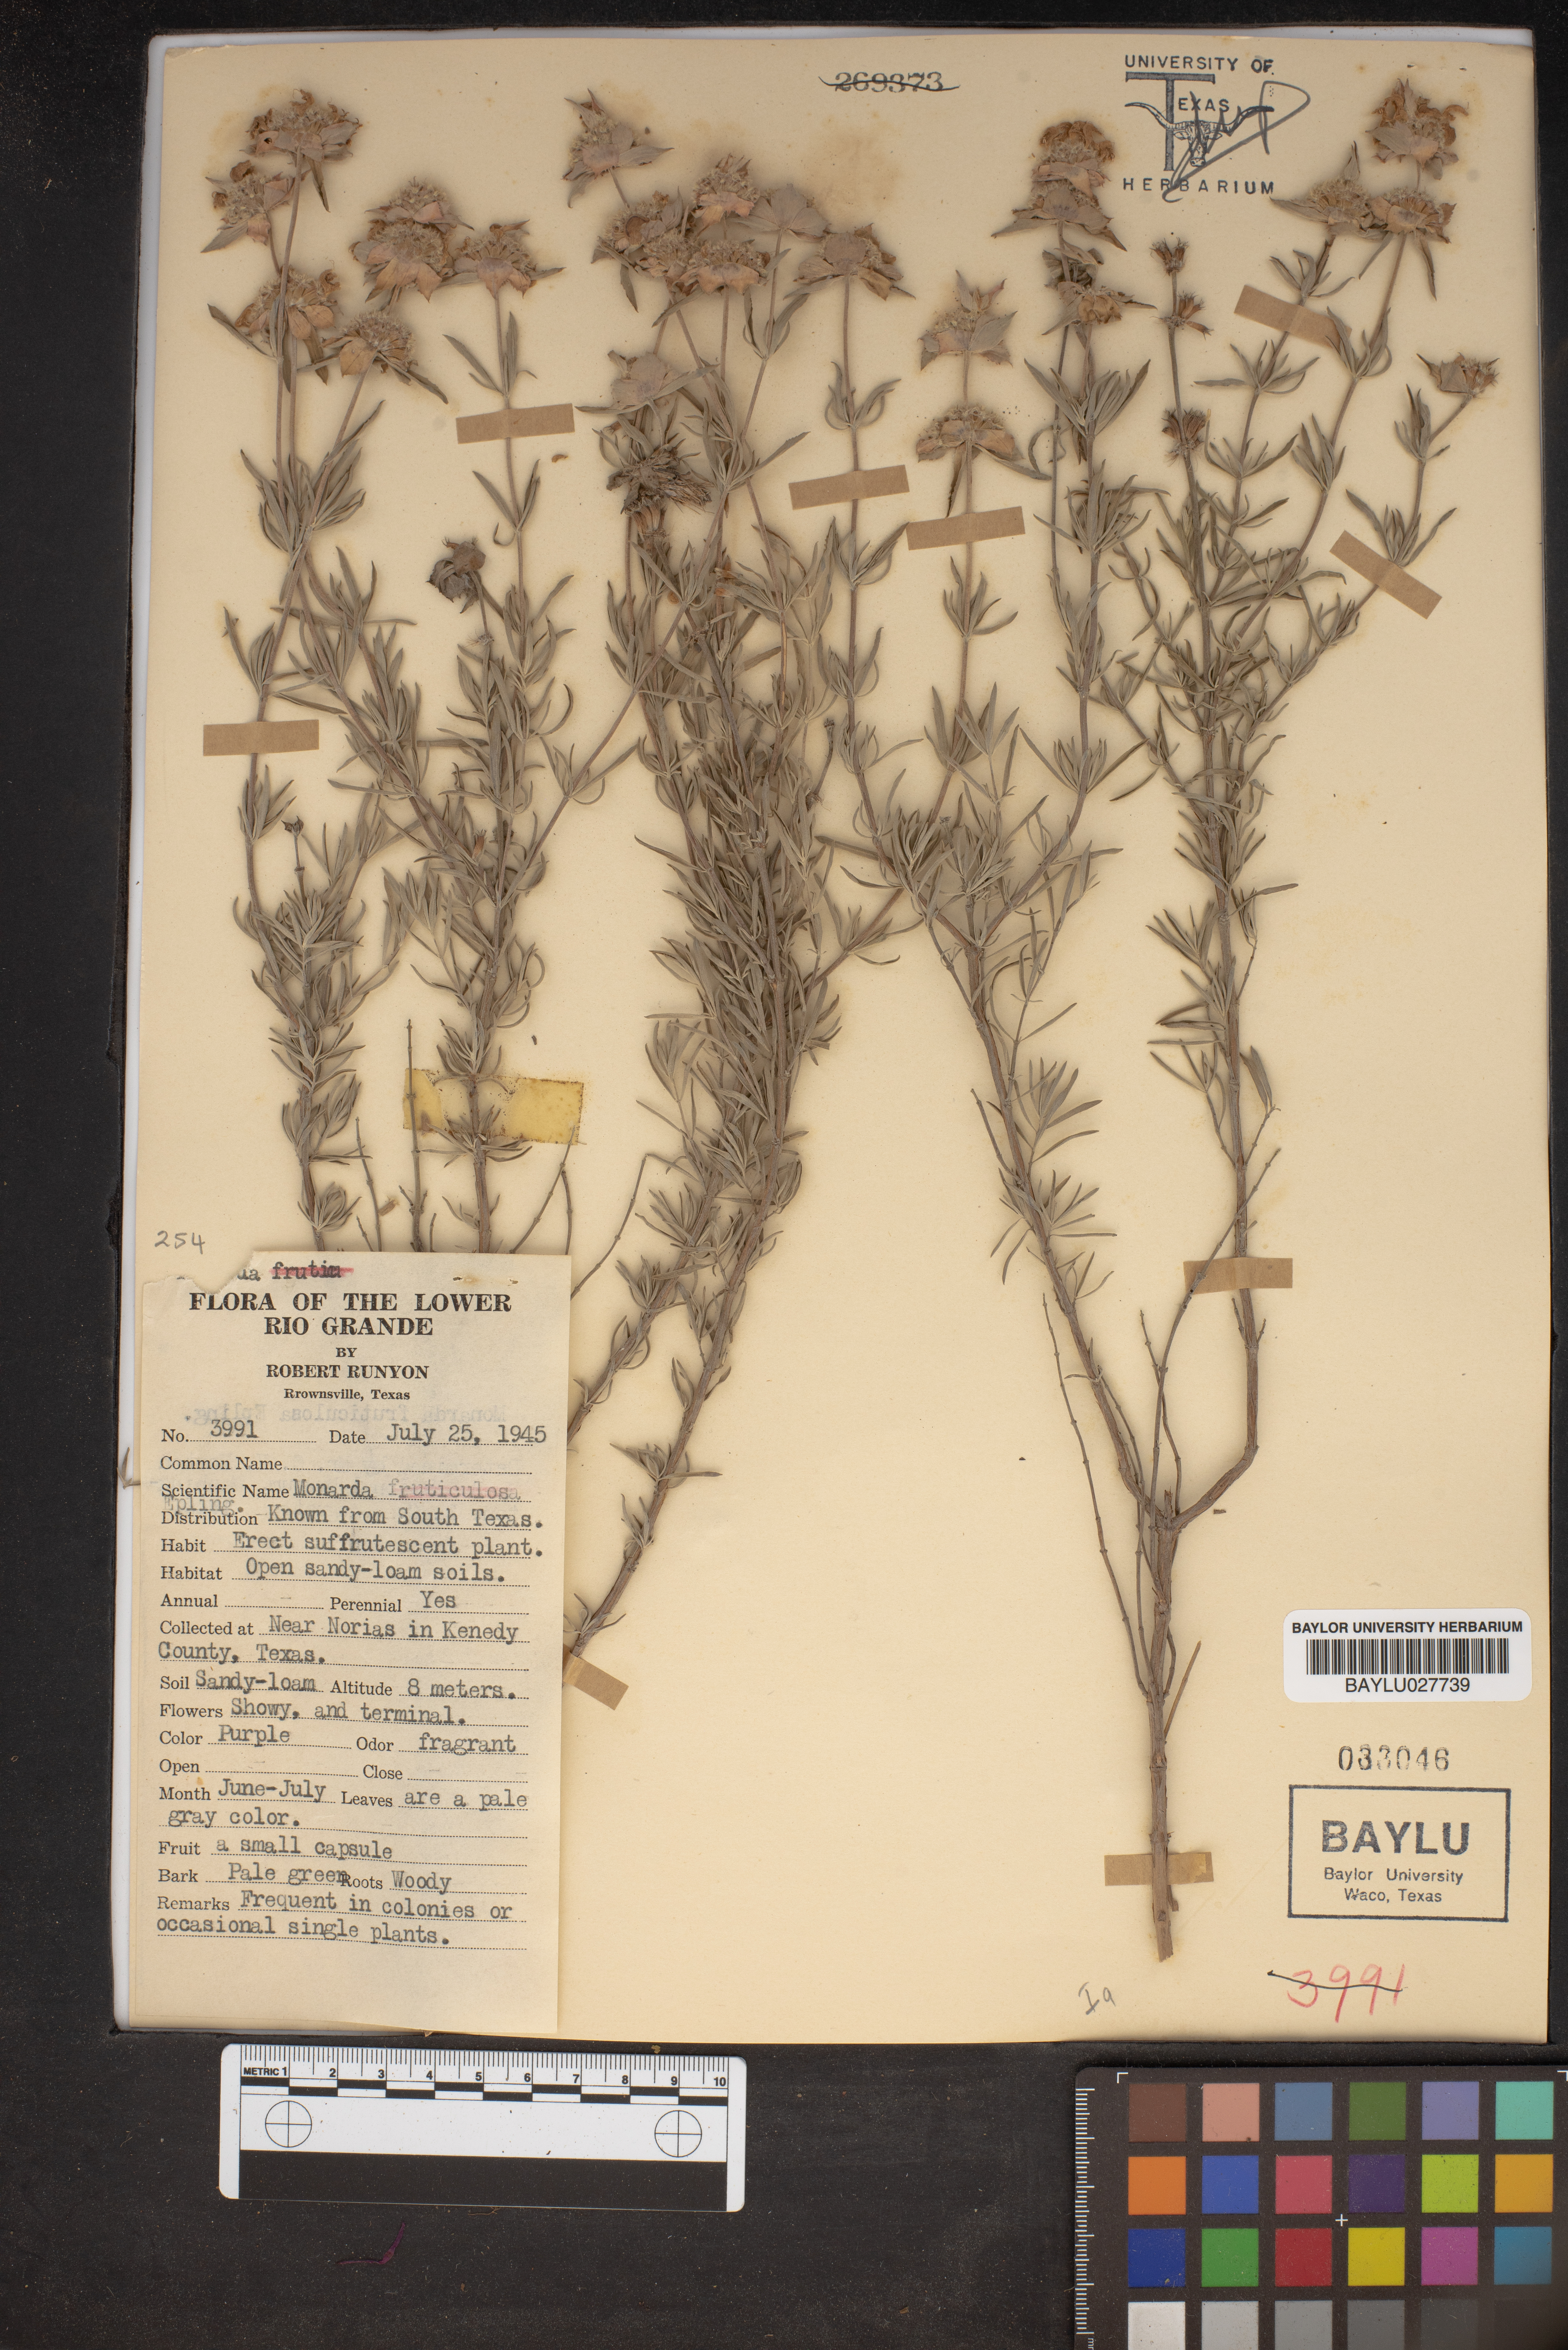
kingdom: Plantae
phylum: Tracheophyta
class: Magnoliopsida
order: Lamiales
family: Lamiaceae
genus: Monarda
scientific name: Monarda fruticulosa
